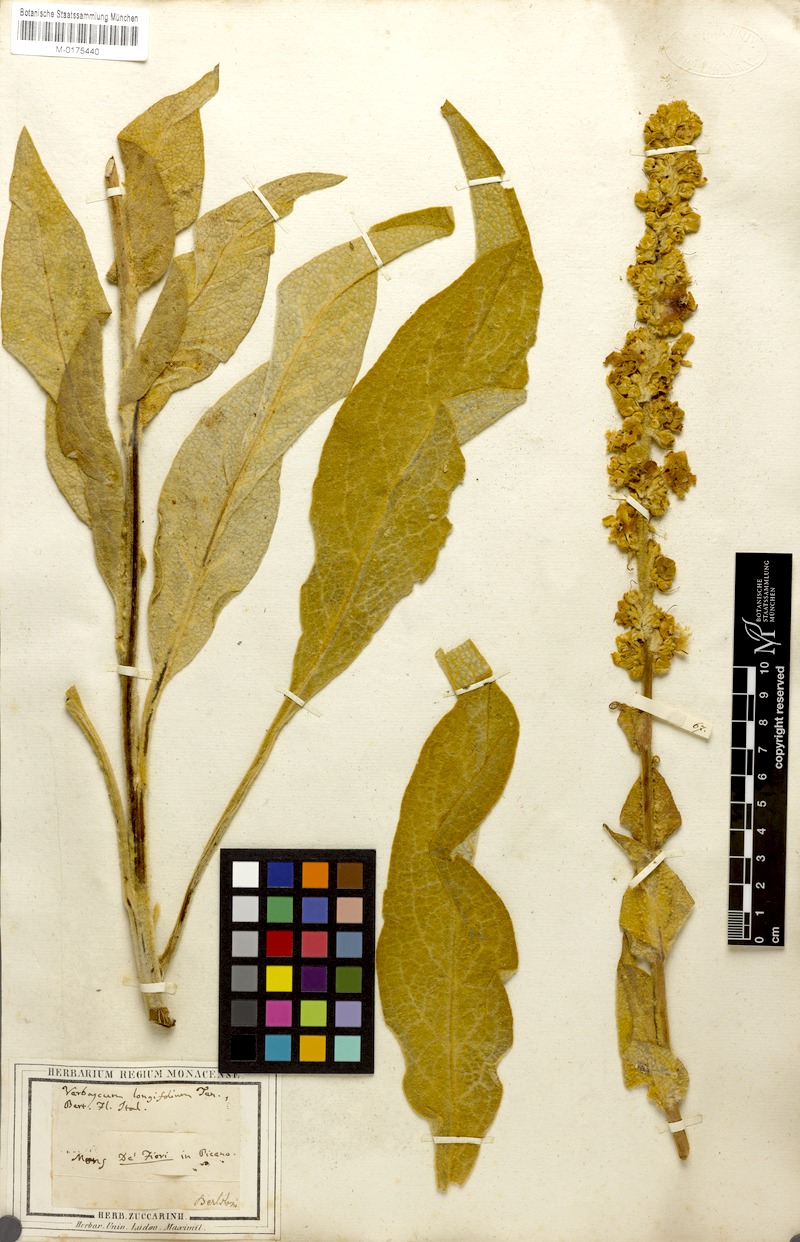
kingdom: Plantae
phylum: Tracheophyta
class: Magnoliopsida
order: Lamiales
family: Scrophulariaceae
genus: Verbascum
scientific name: Verbascum longifolium
